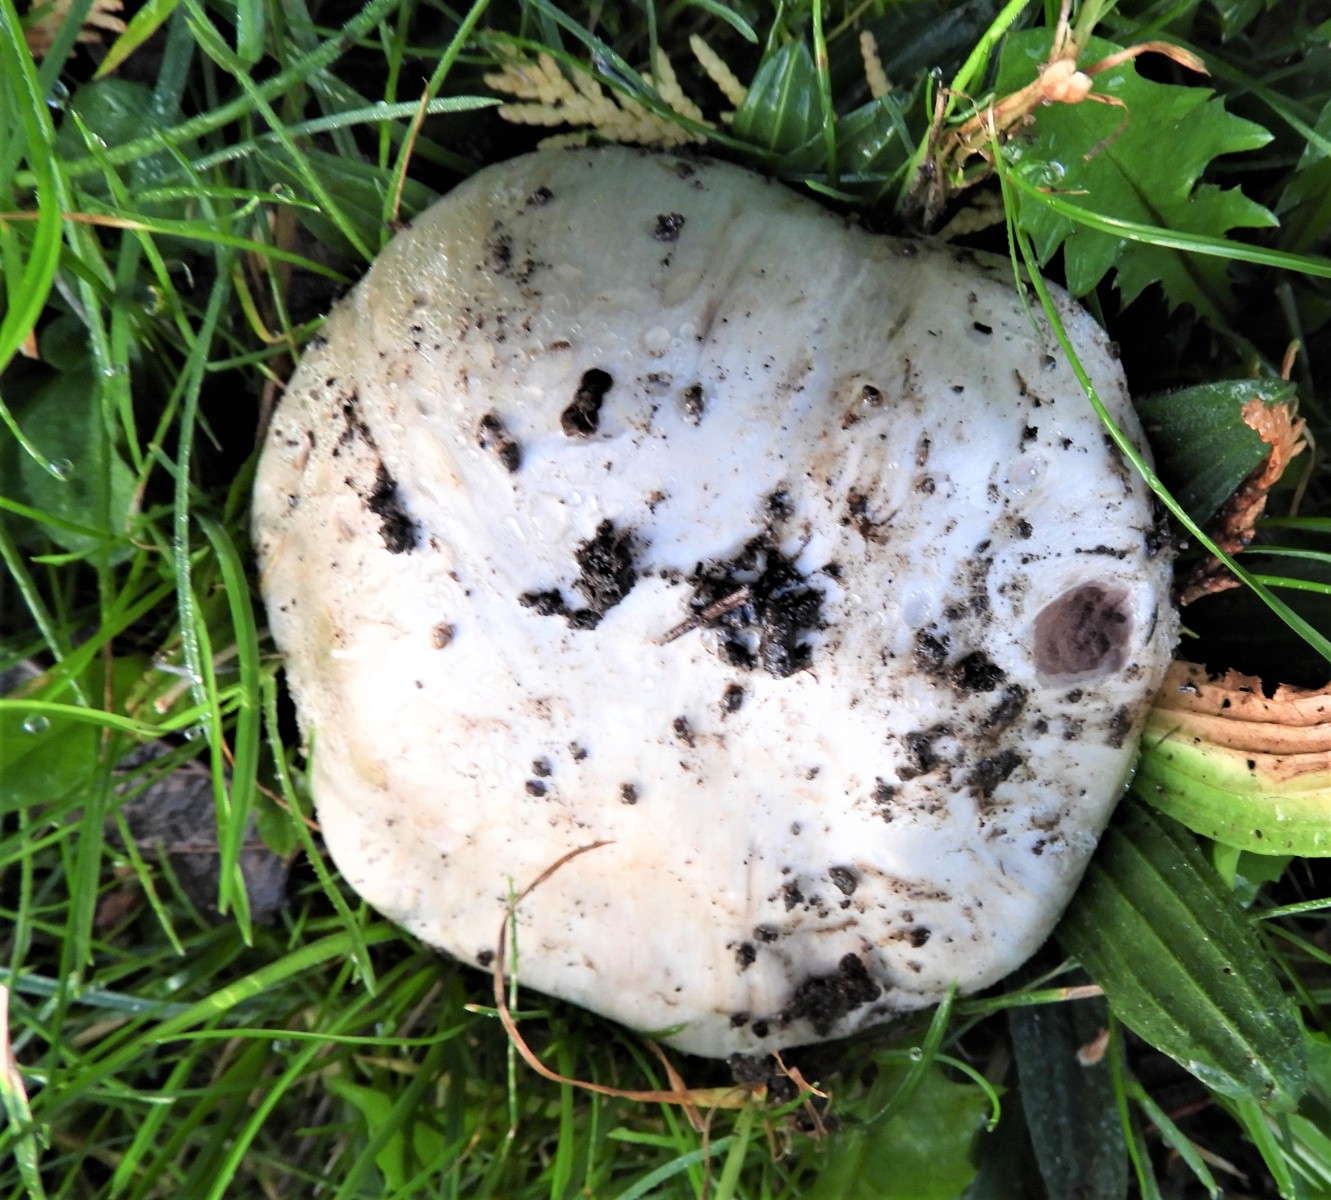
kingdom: Fungi
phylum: Basidiomycota
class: Agaricomycetes
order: Agaricales
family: Agaricaceae
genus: Agaricus
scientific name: Agaricus bitorquis
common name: vej-champignon
